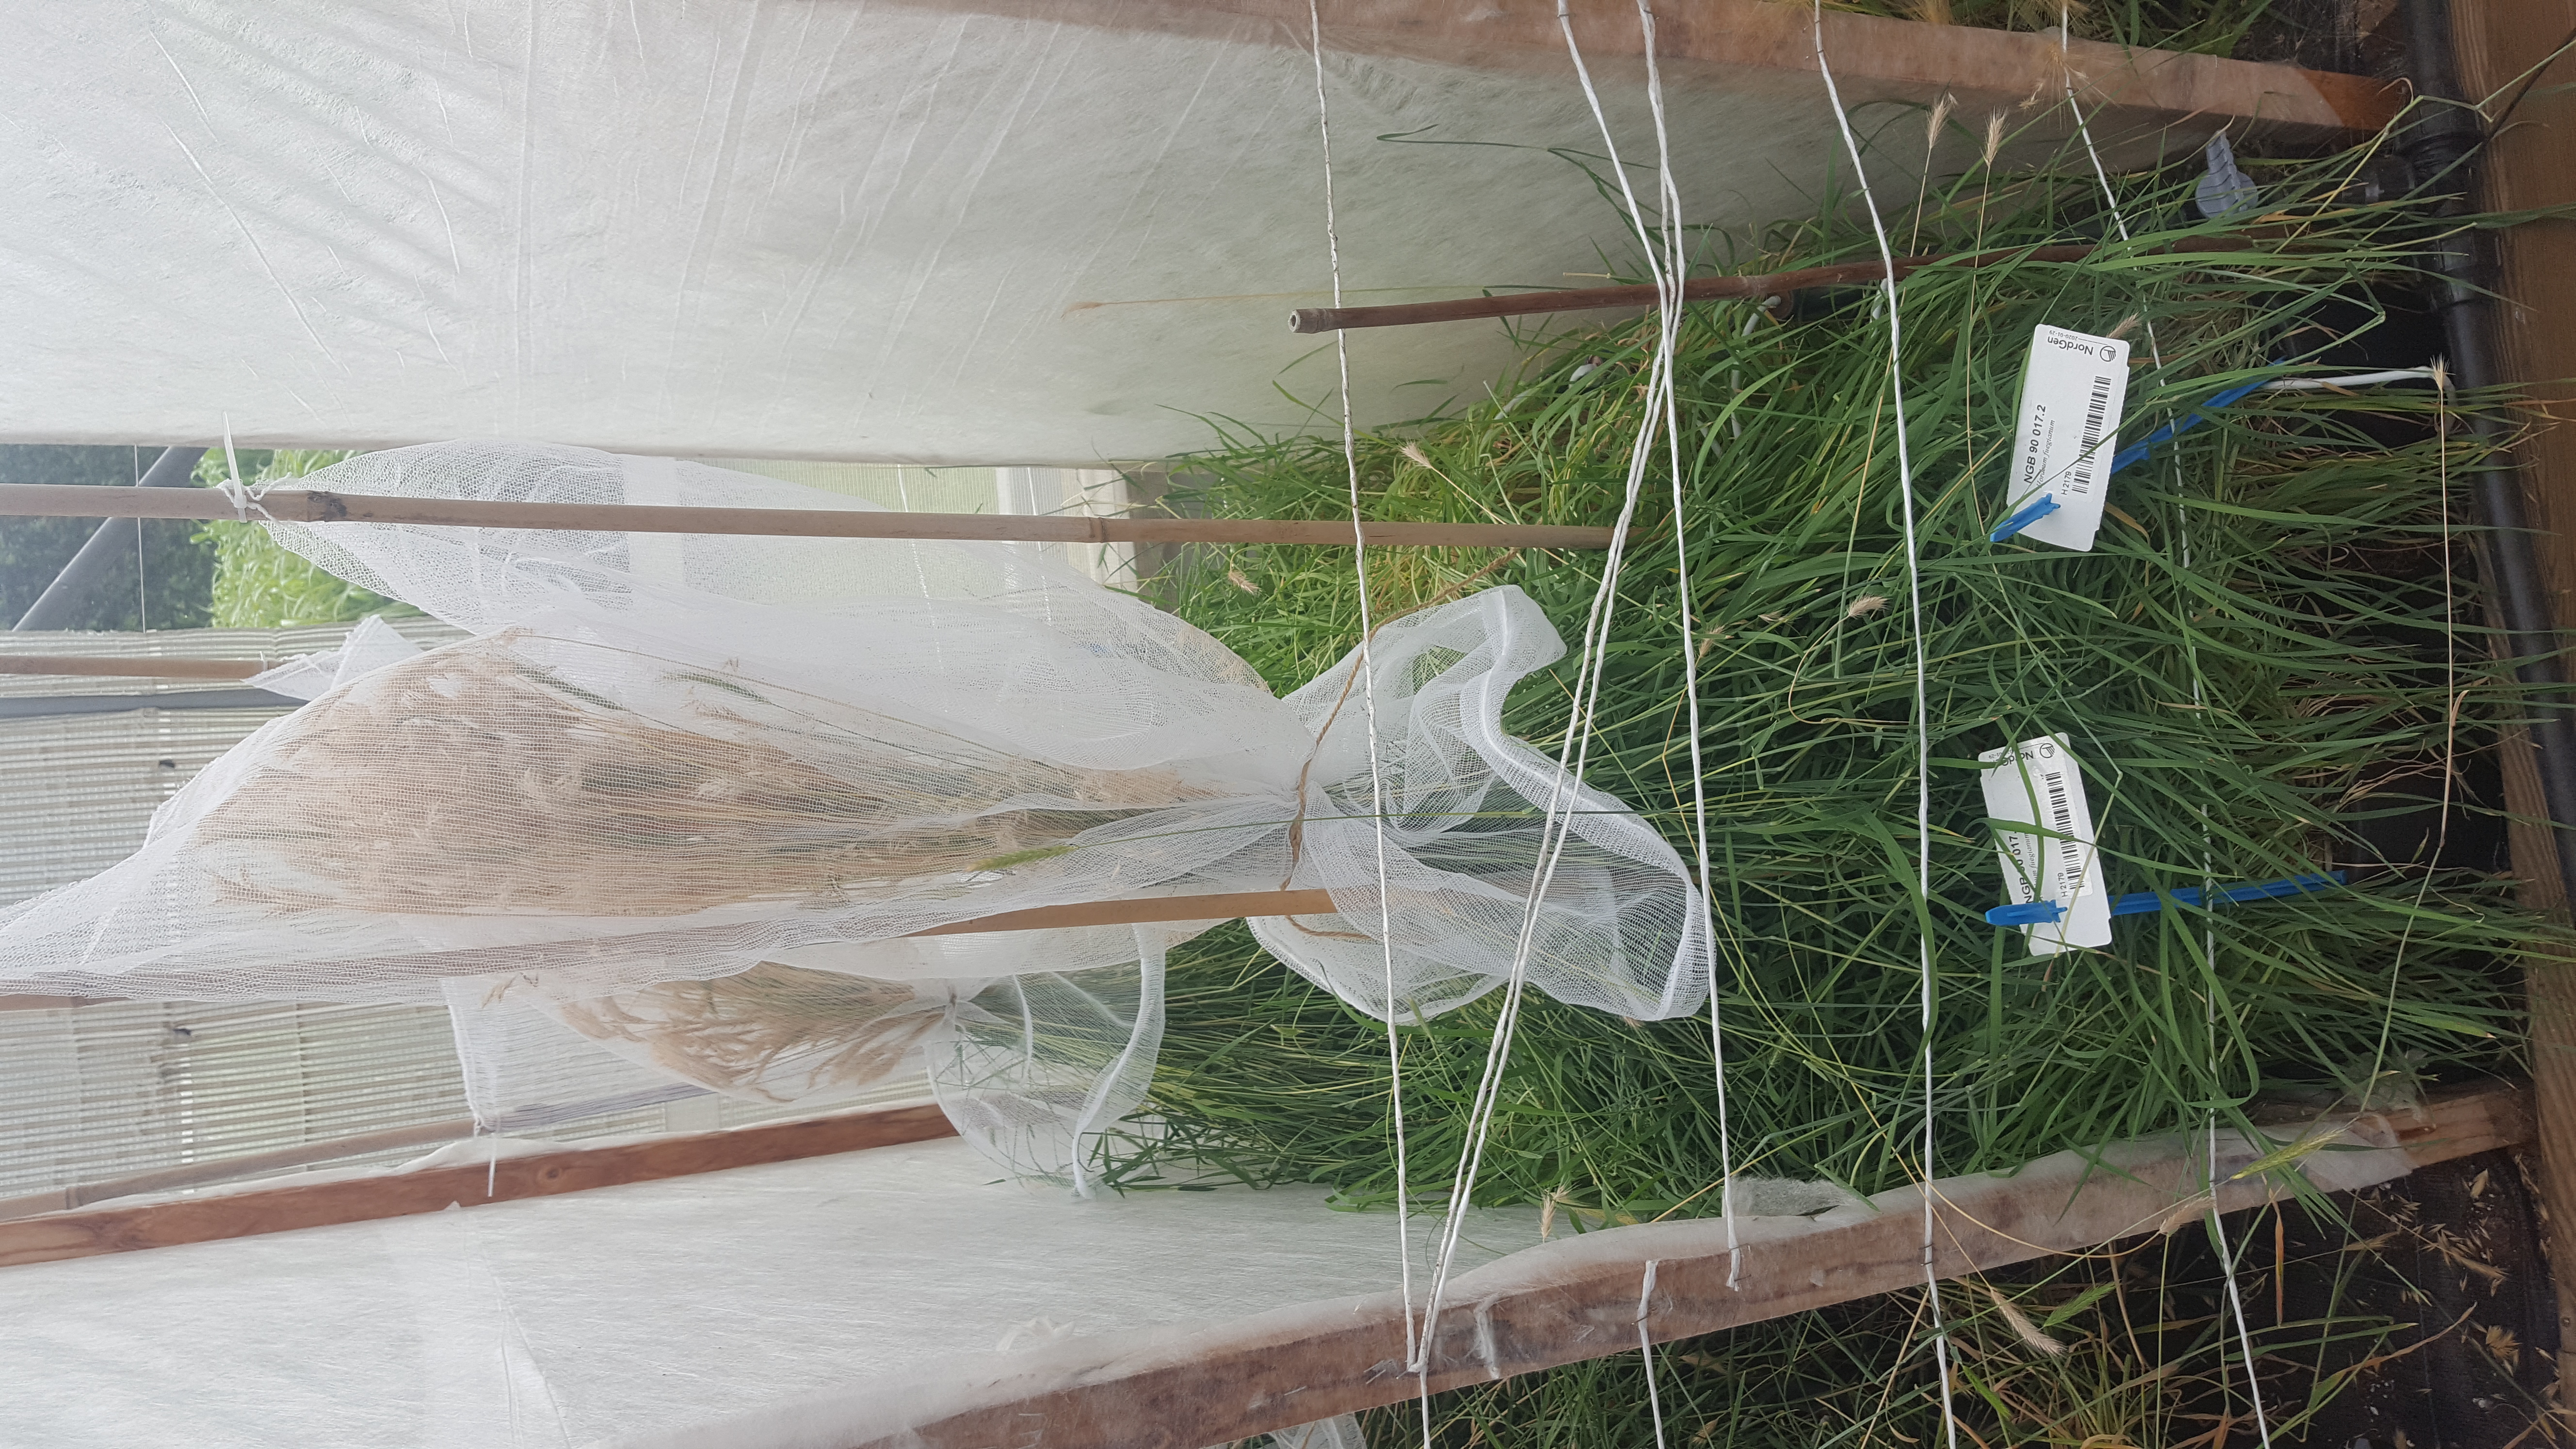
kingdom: Plantae
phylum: Tracheophyta
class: Liliopsida
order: Poales
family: Poaceae
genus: Hordeum
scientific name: Hordeum fuegianum
